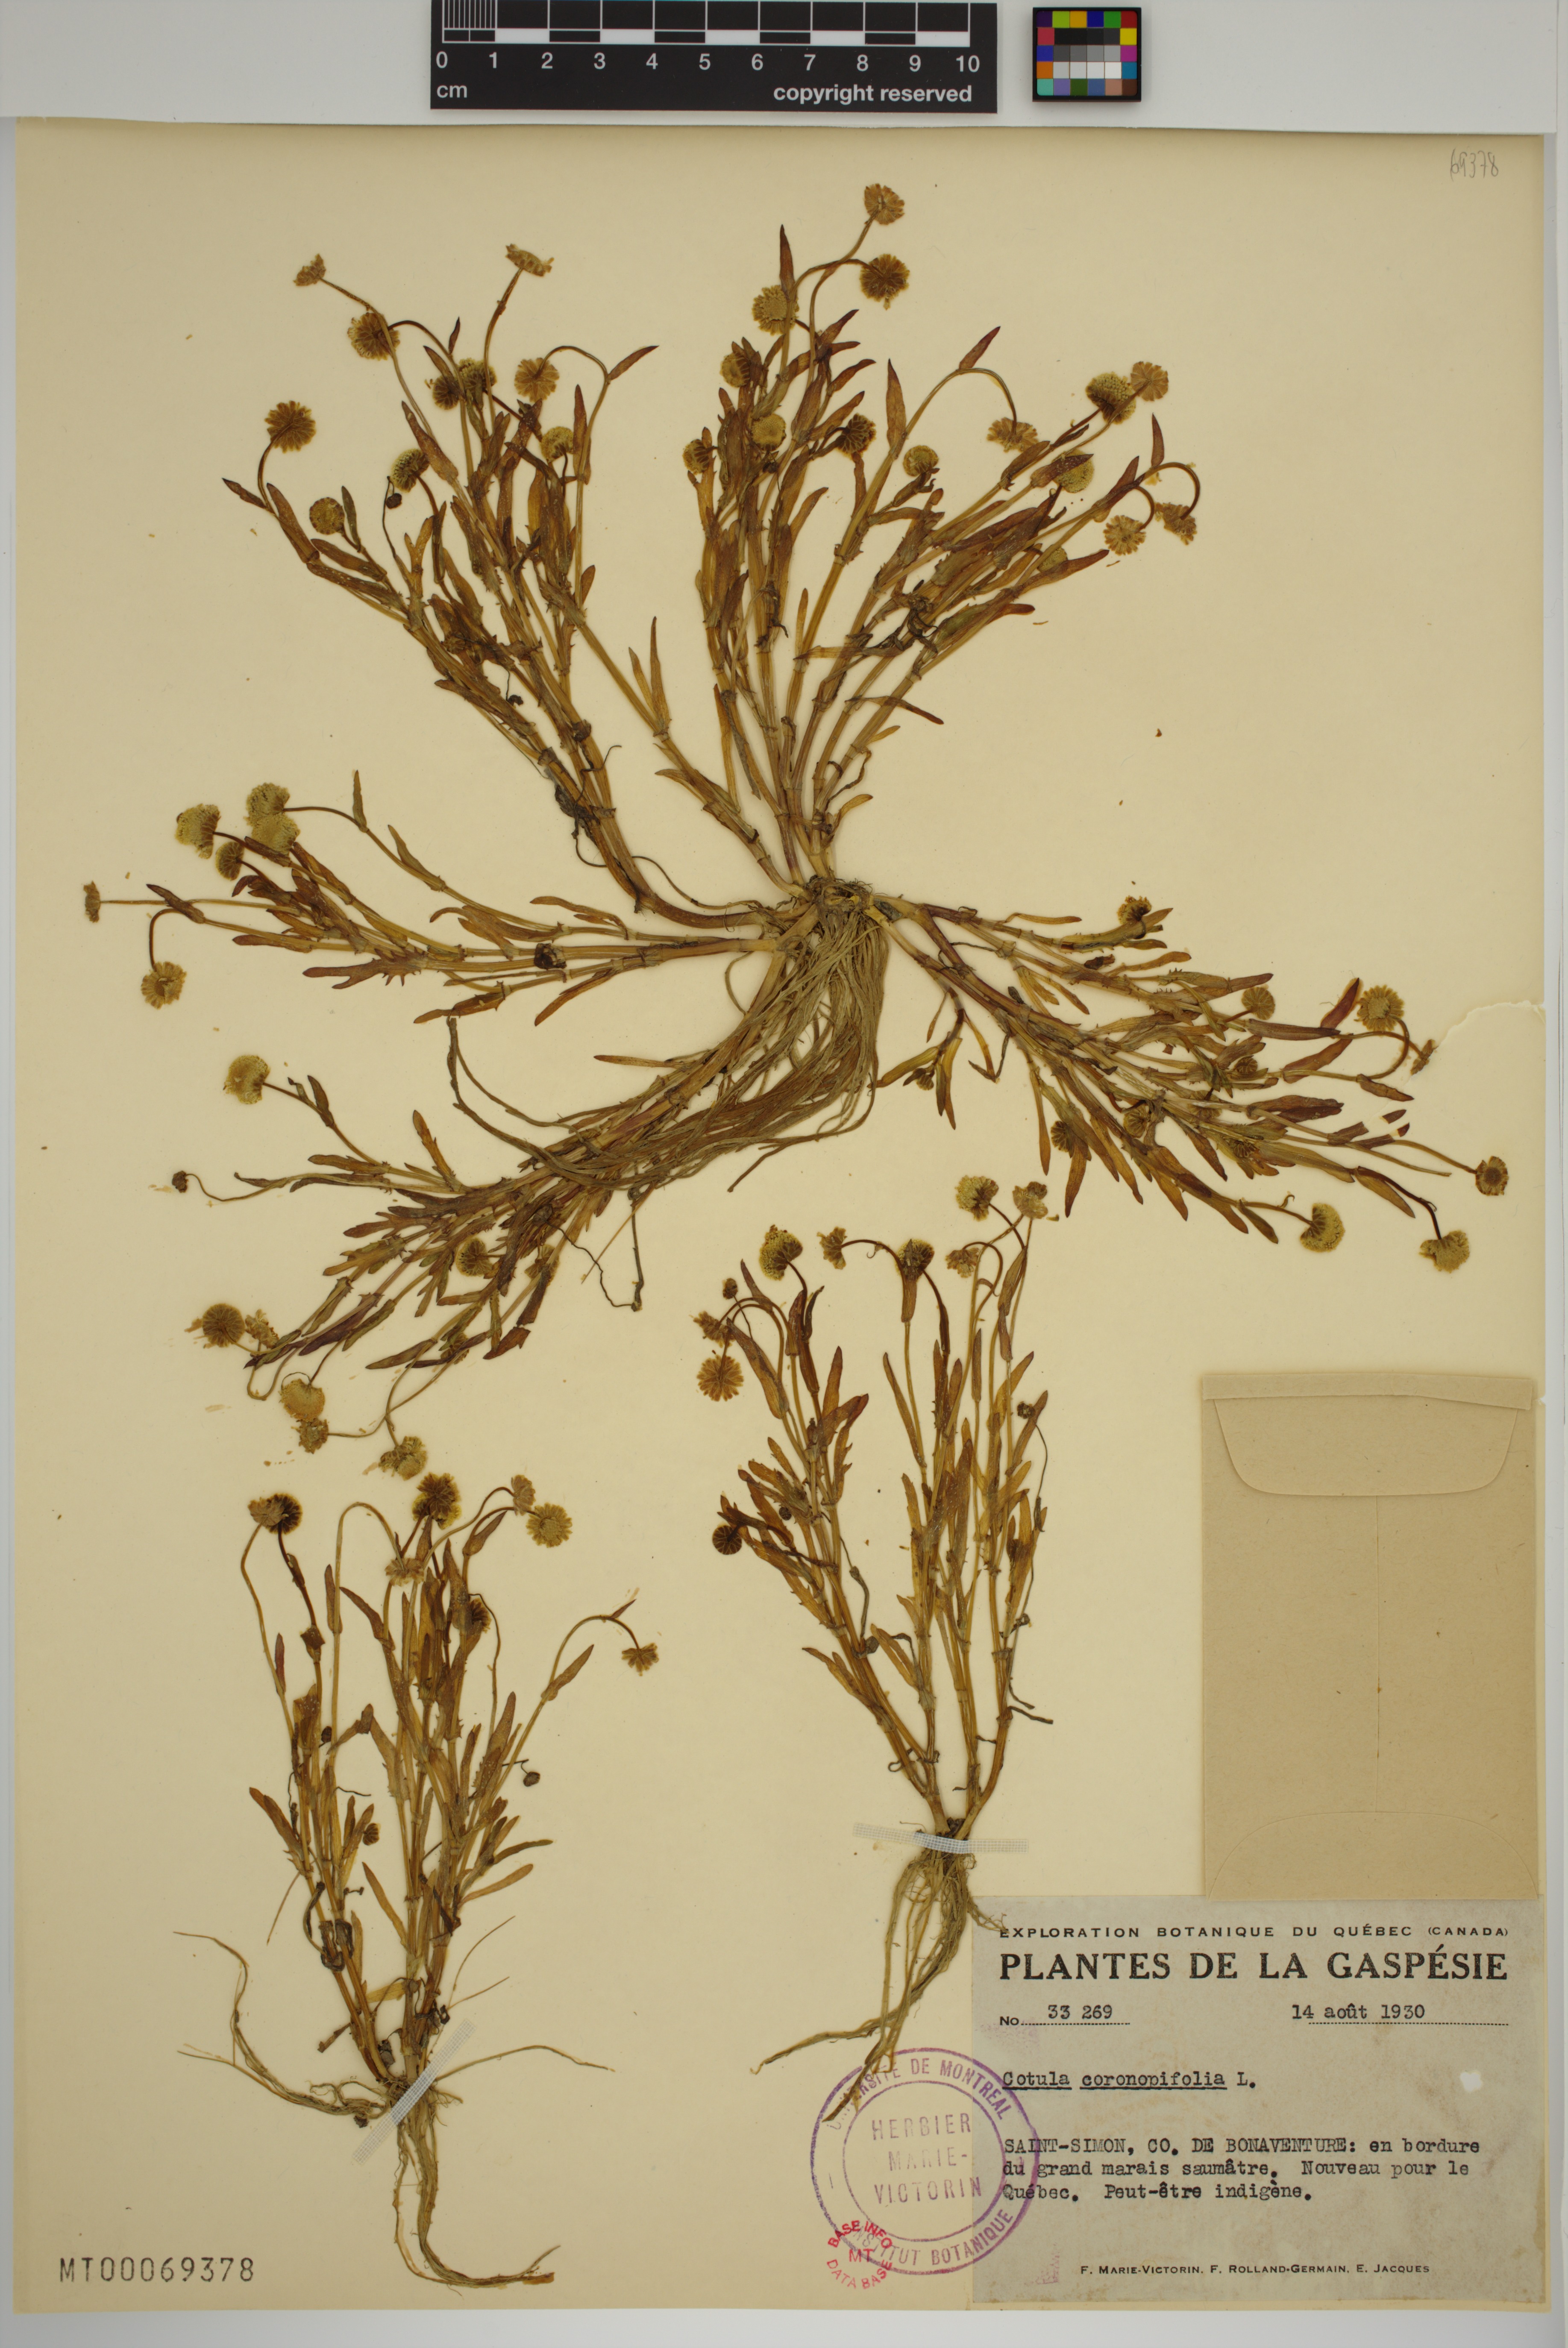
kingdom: Plantae
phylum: Tracheophyta
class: Magnoliopsida
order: Asterales
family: Asteraceae
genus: Cotula
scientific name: Cotula coronopifolia
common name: Buttonweed
